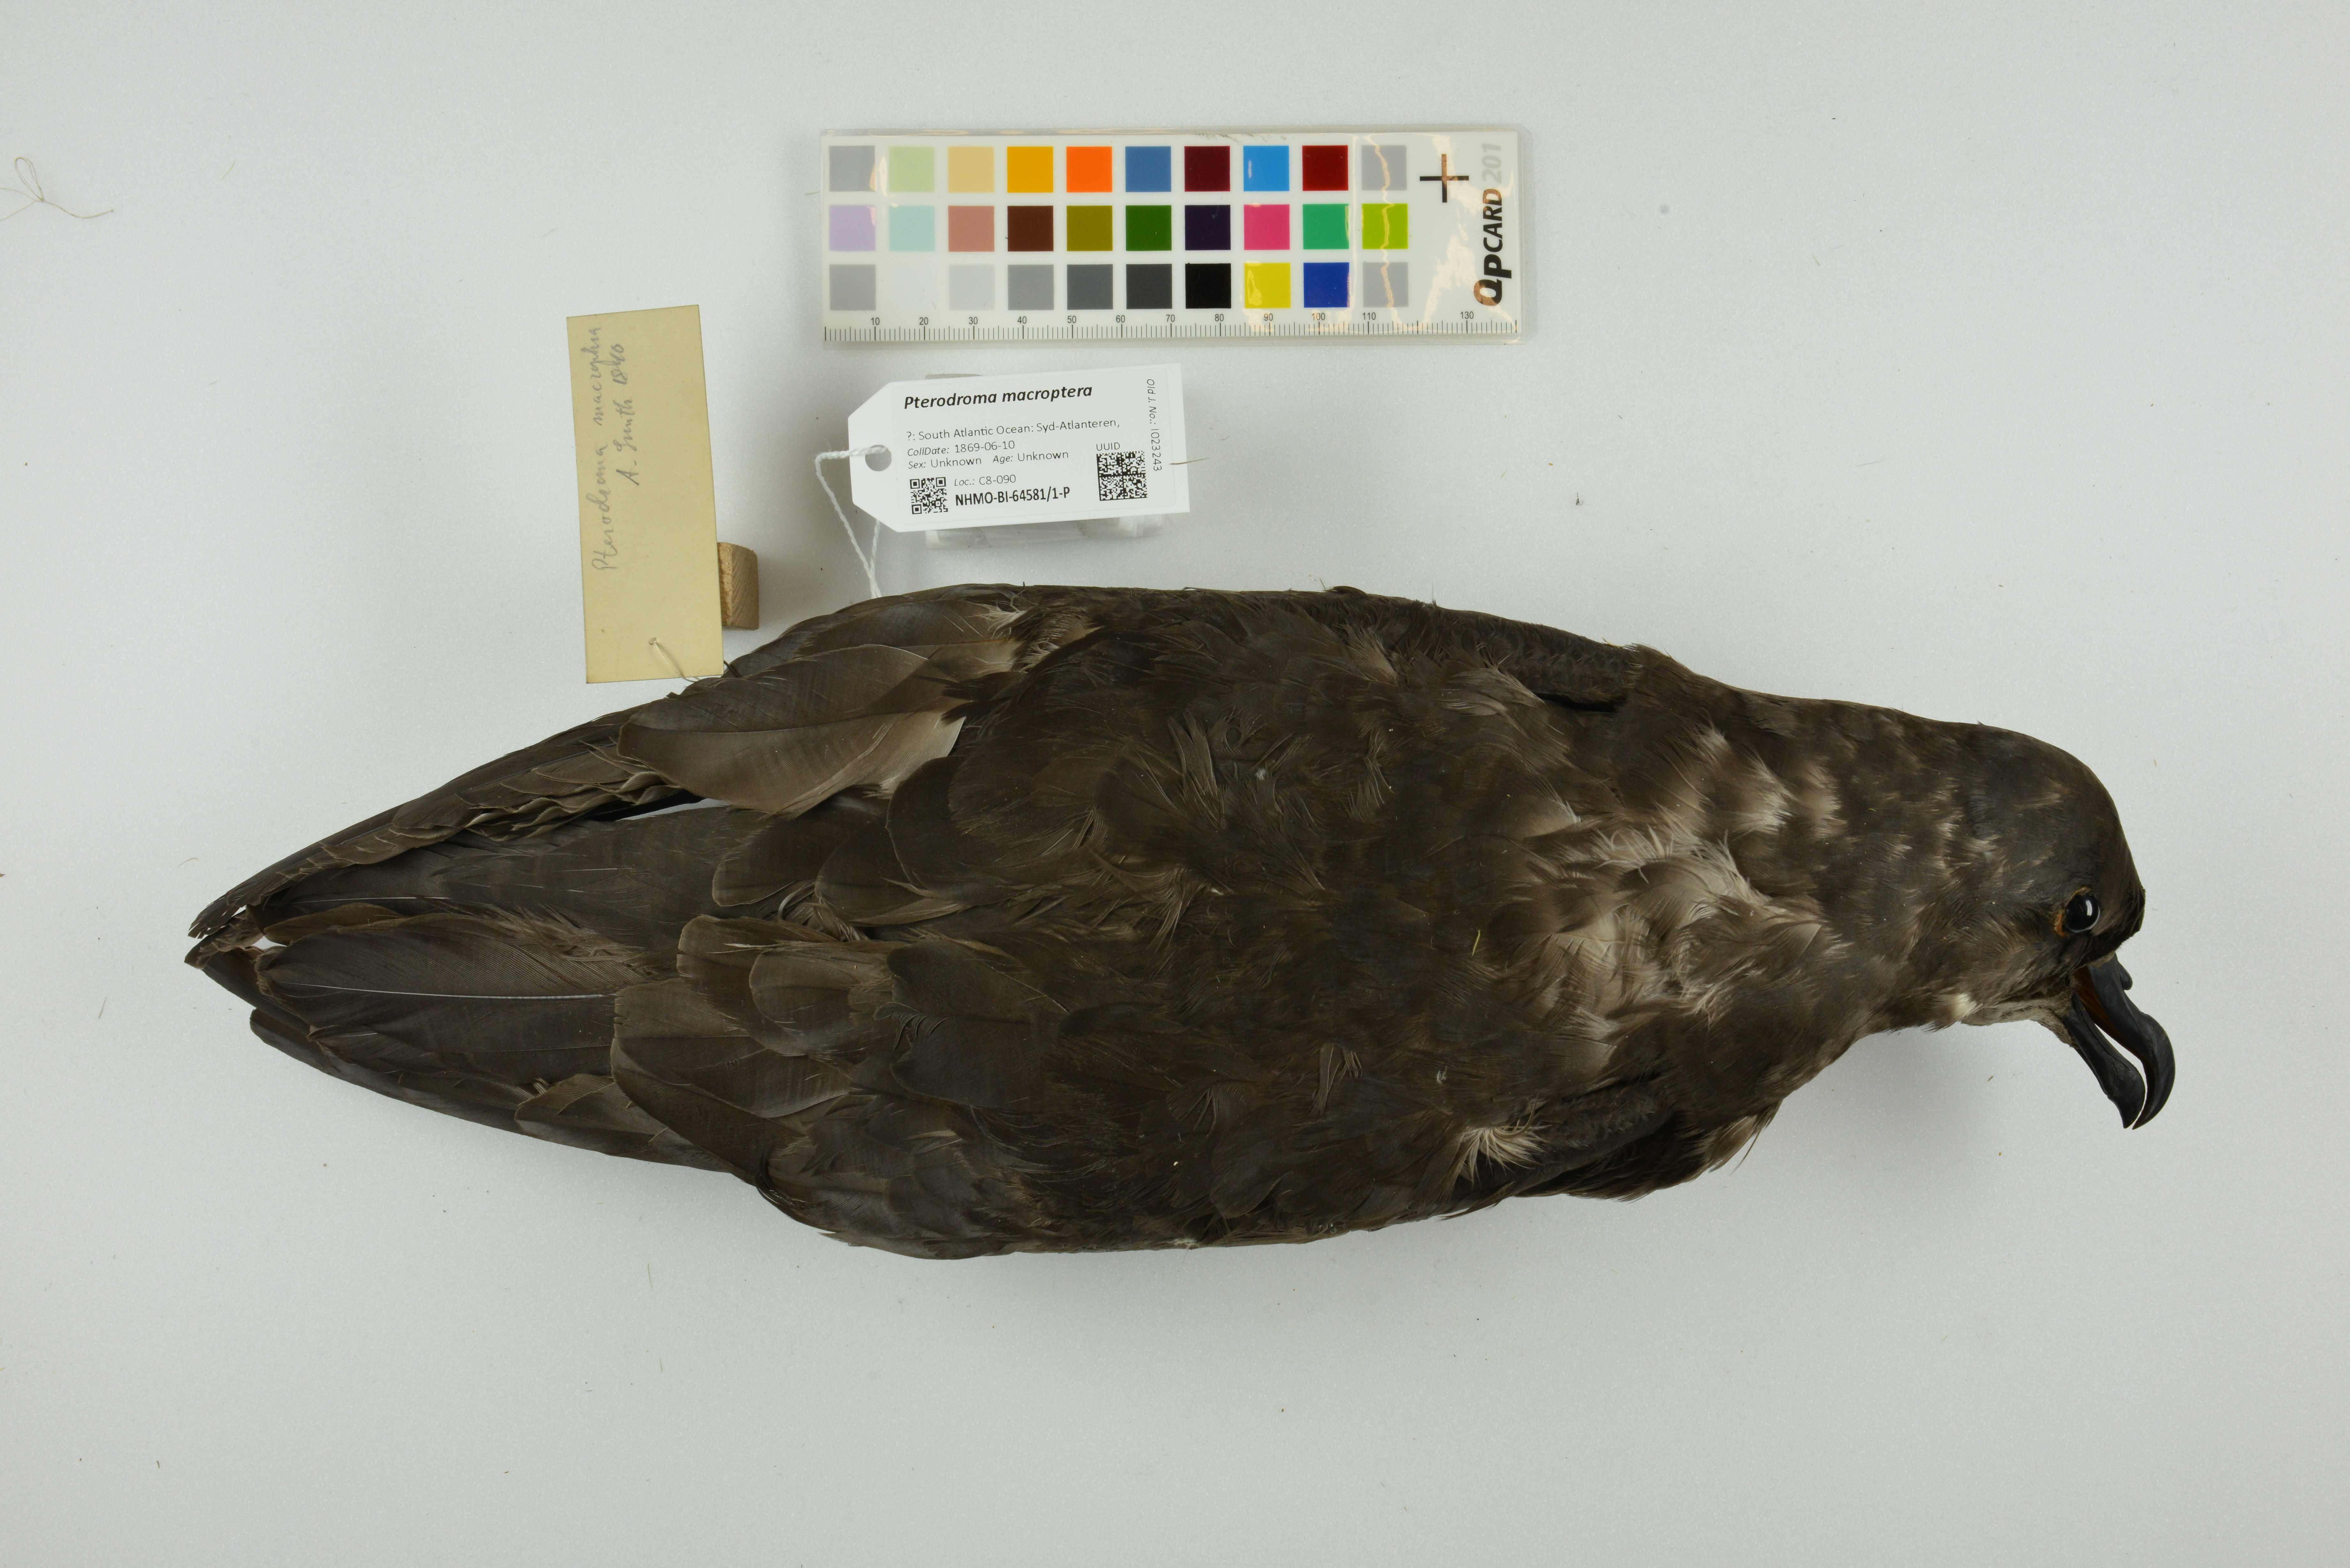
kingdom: Animalia
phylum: Chordata
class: Aves
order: Procellariiformes
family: Procellariidae
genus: Pterodroma
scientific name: Pterodroma macroptera
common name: Great-winged petrel
